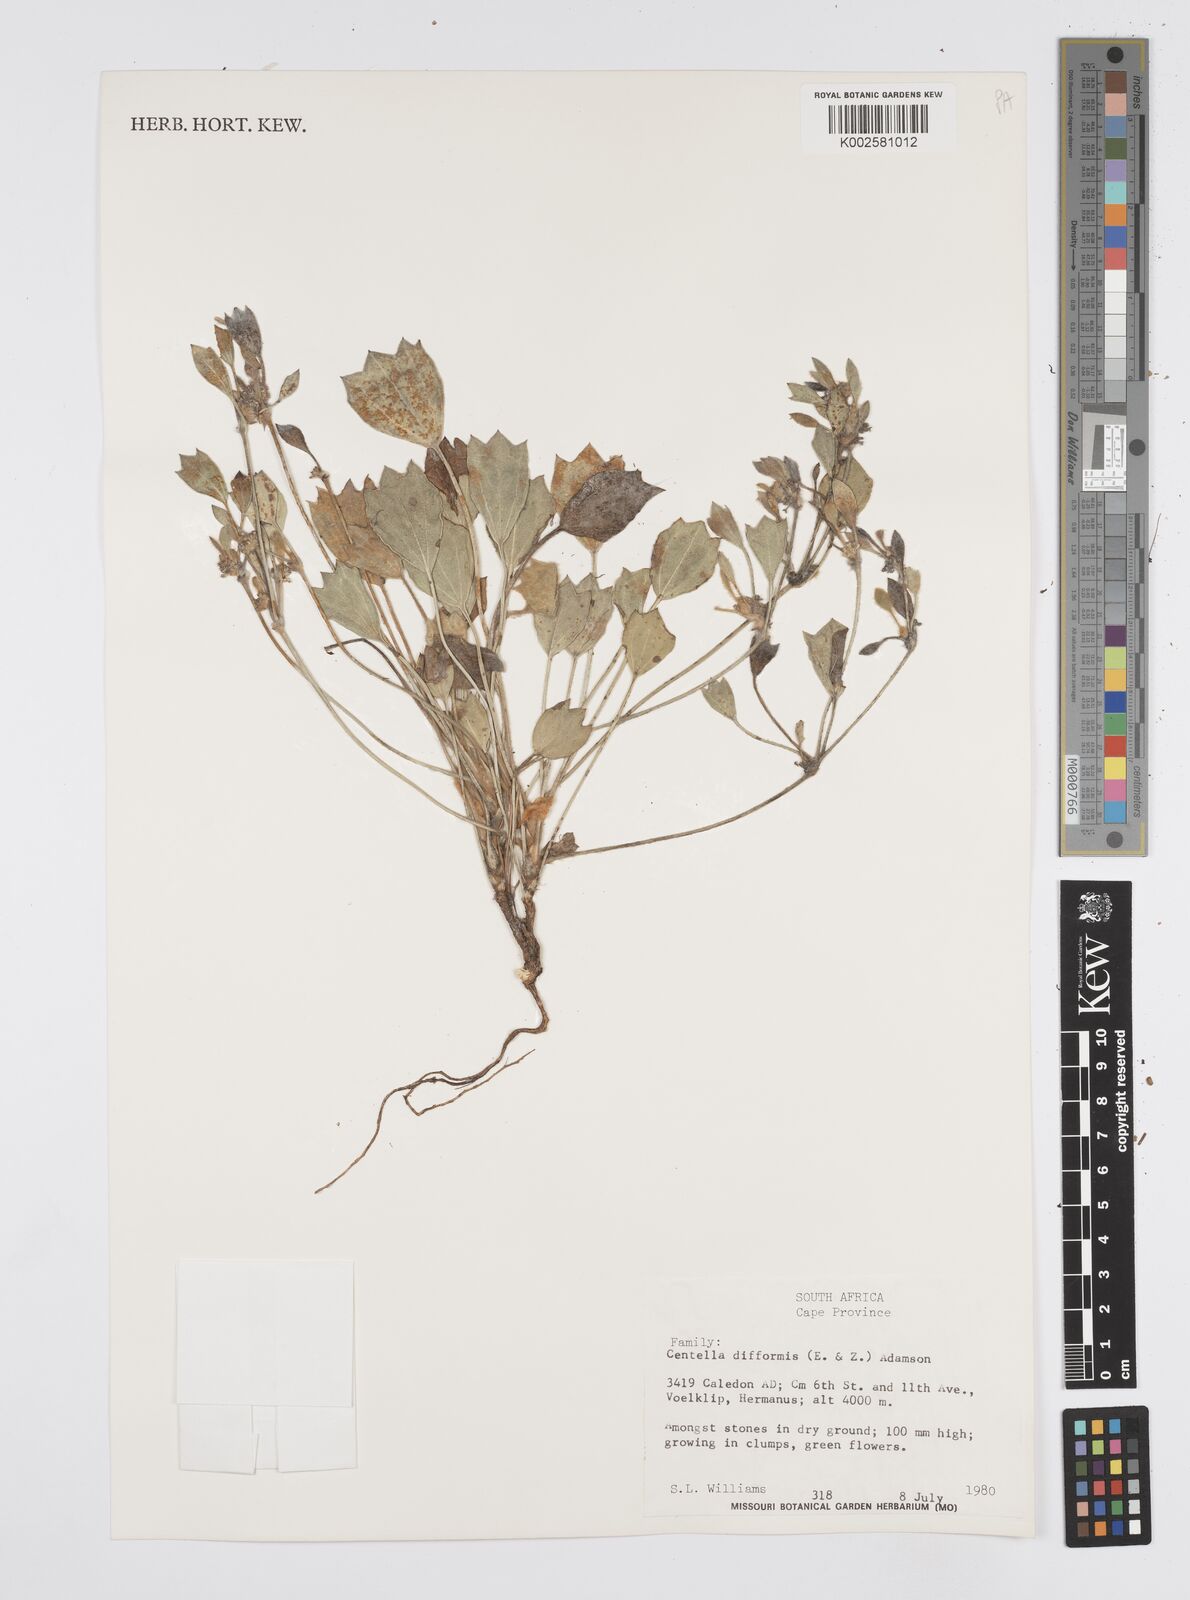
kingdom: Plantae
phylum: Tracheophyta
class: Magnoliopsida
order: Apiales
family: Apiaceae
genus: Centella
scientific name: Centella difformis
